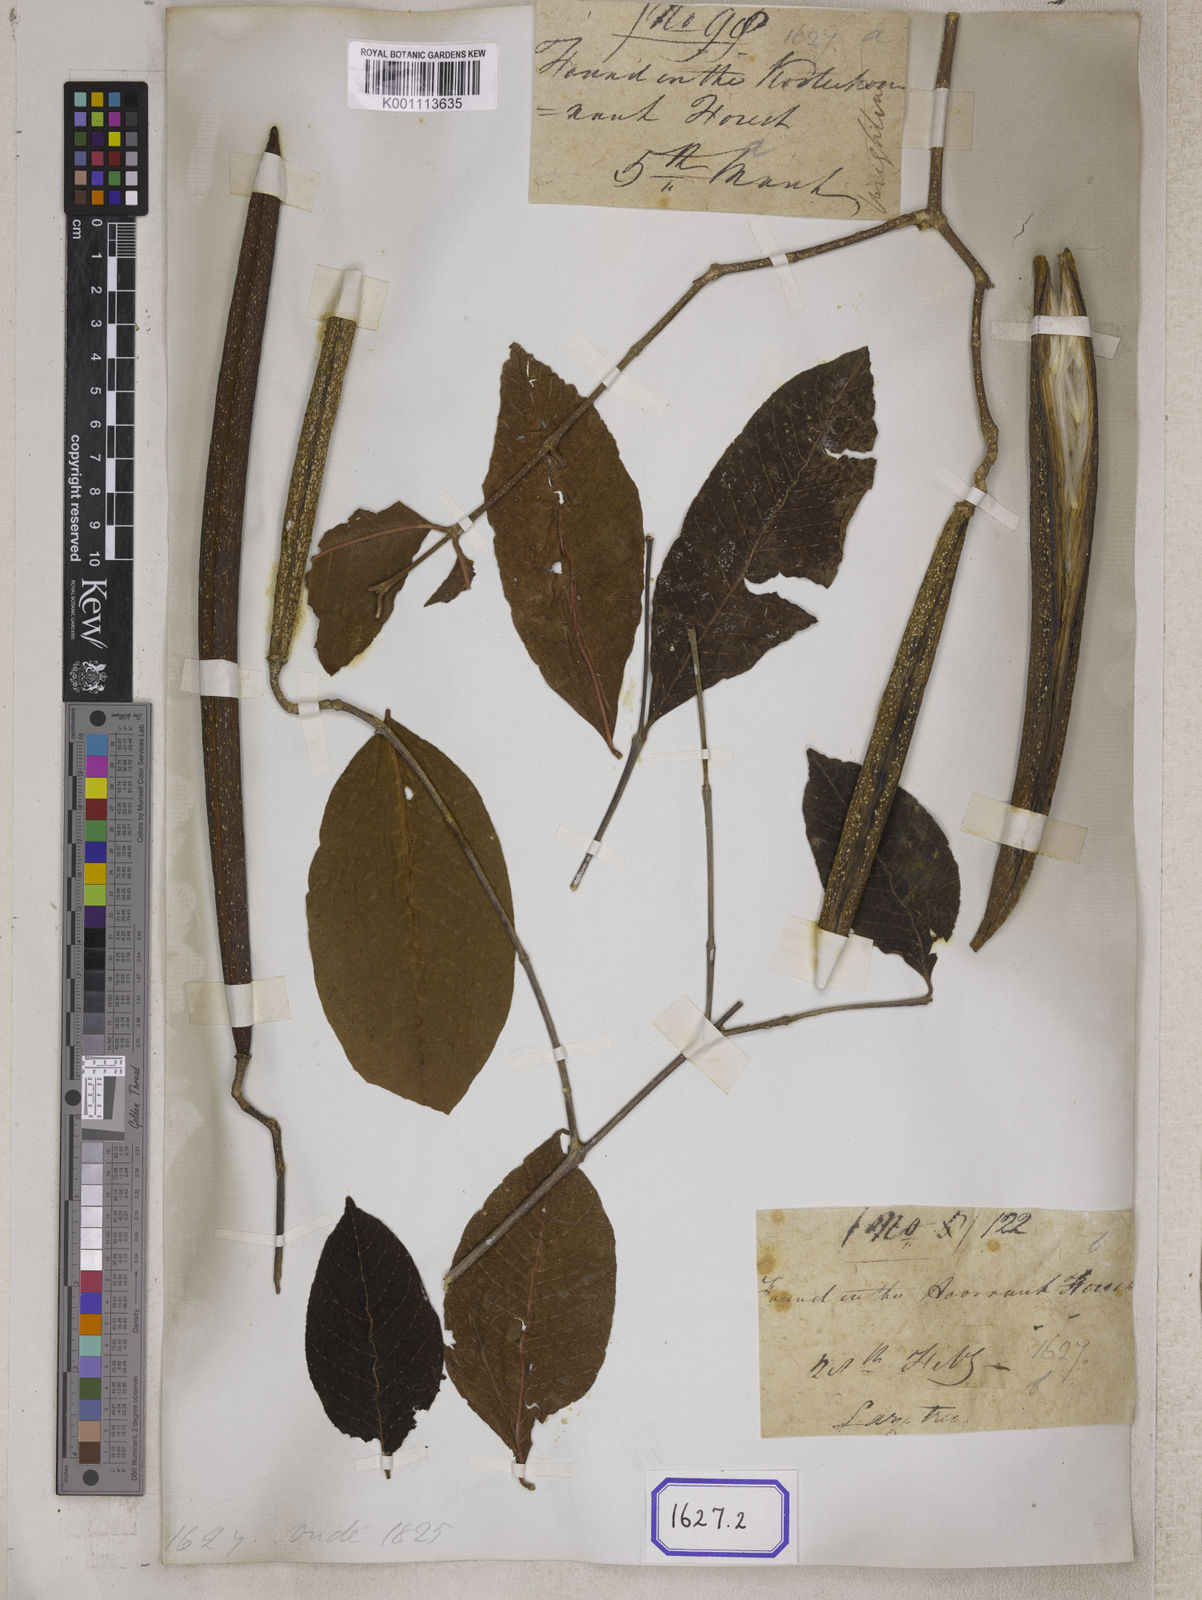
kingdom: Plantae
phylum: Tracheophyta
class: Magnoliopsida
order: Gentianales
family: Apocynaceae
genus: Wrightia
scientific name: Wrightia arborea
